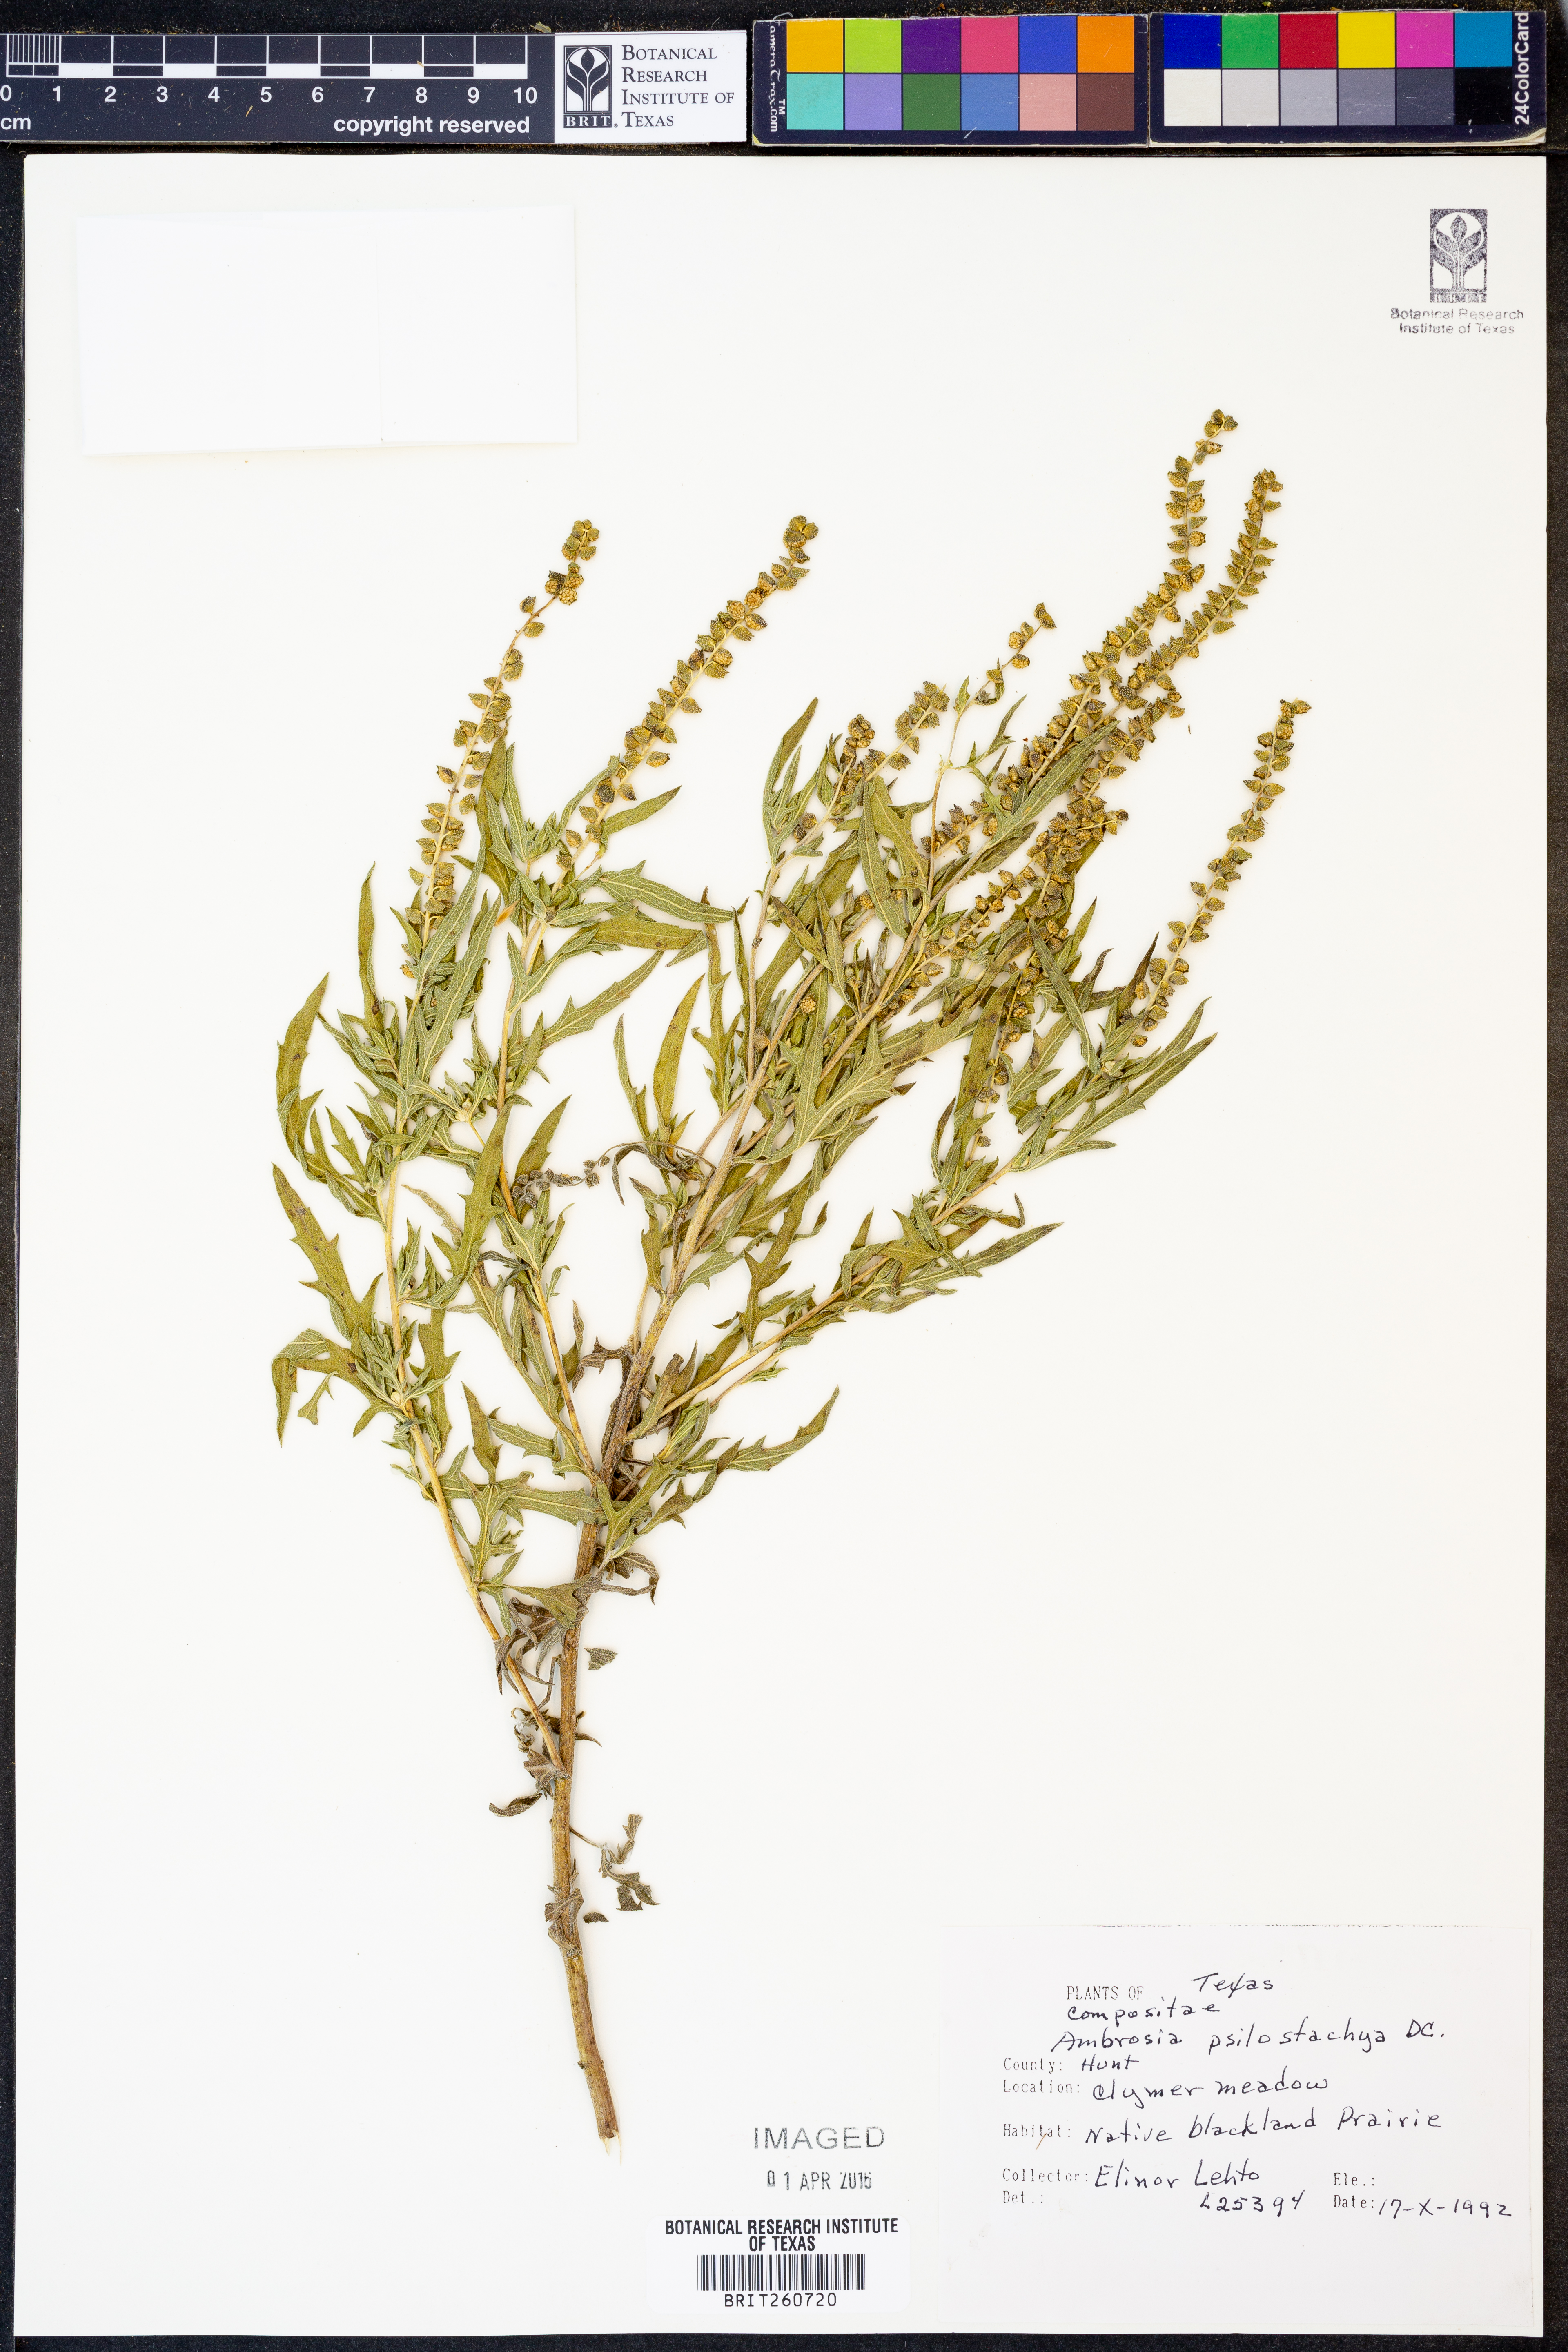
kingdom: Plantae
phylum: Tracheophyta
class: Magnoliopsida
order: Asterales
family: Asteraceae
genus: Ambrosia
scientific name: Ambrosia psilostachya
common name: Perennial ragweed
